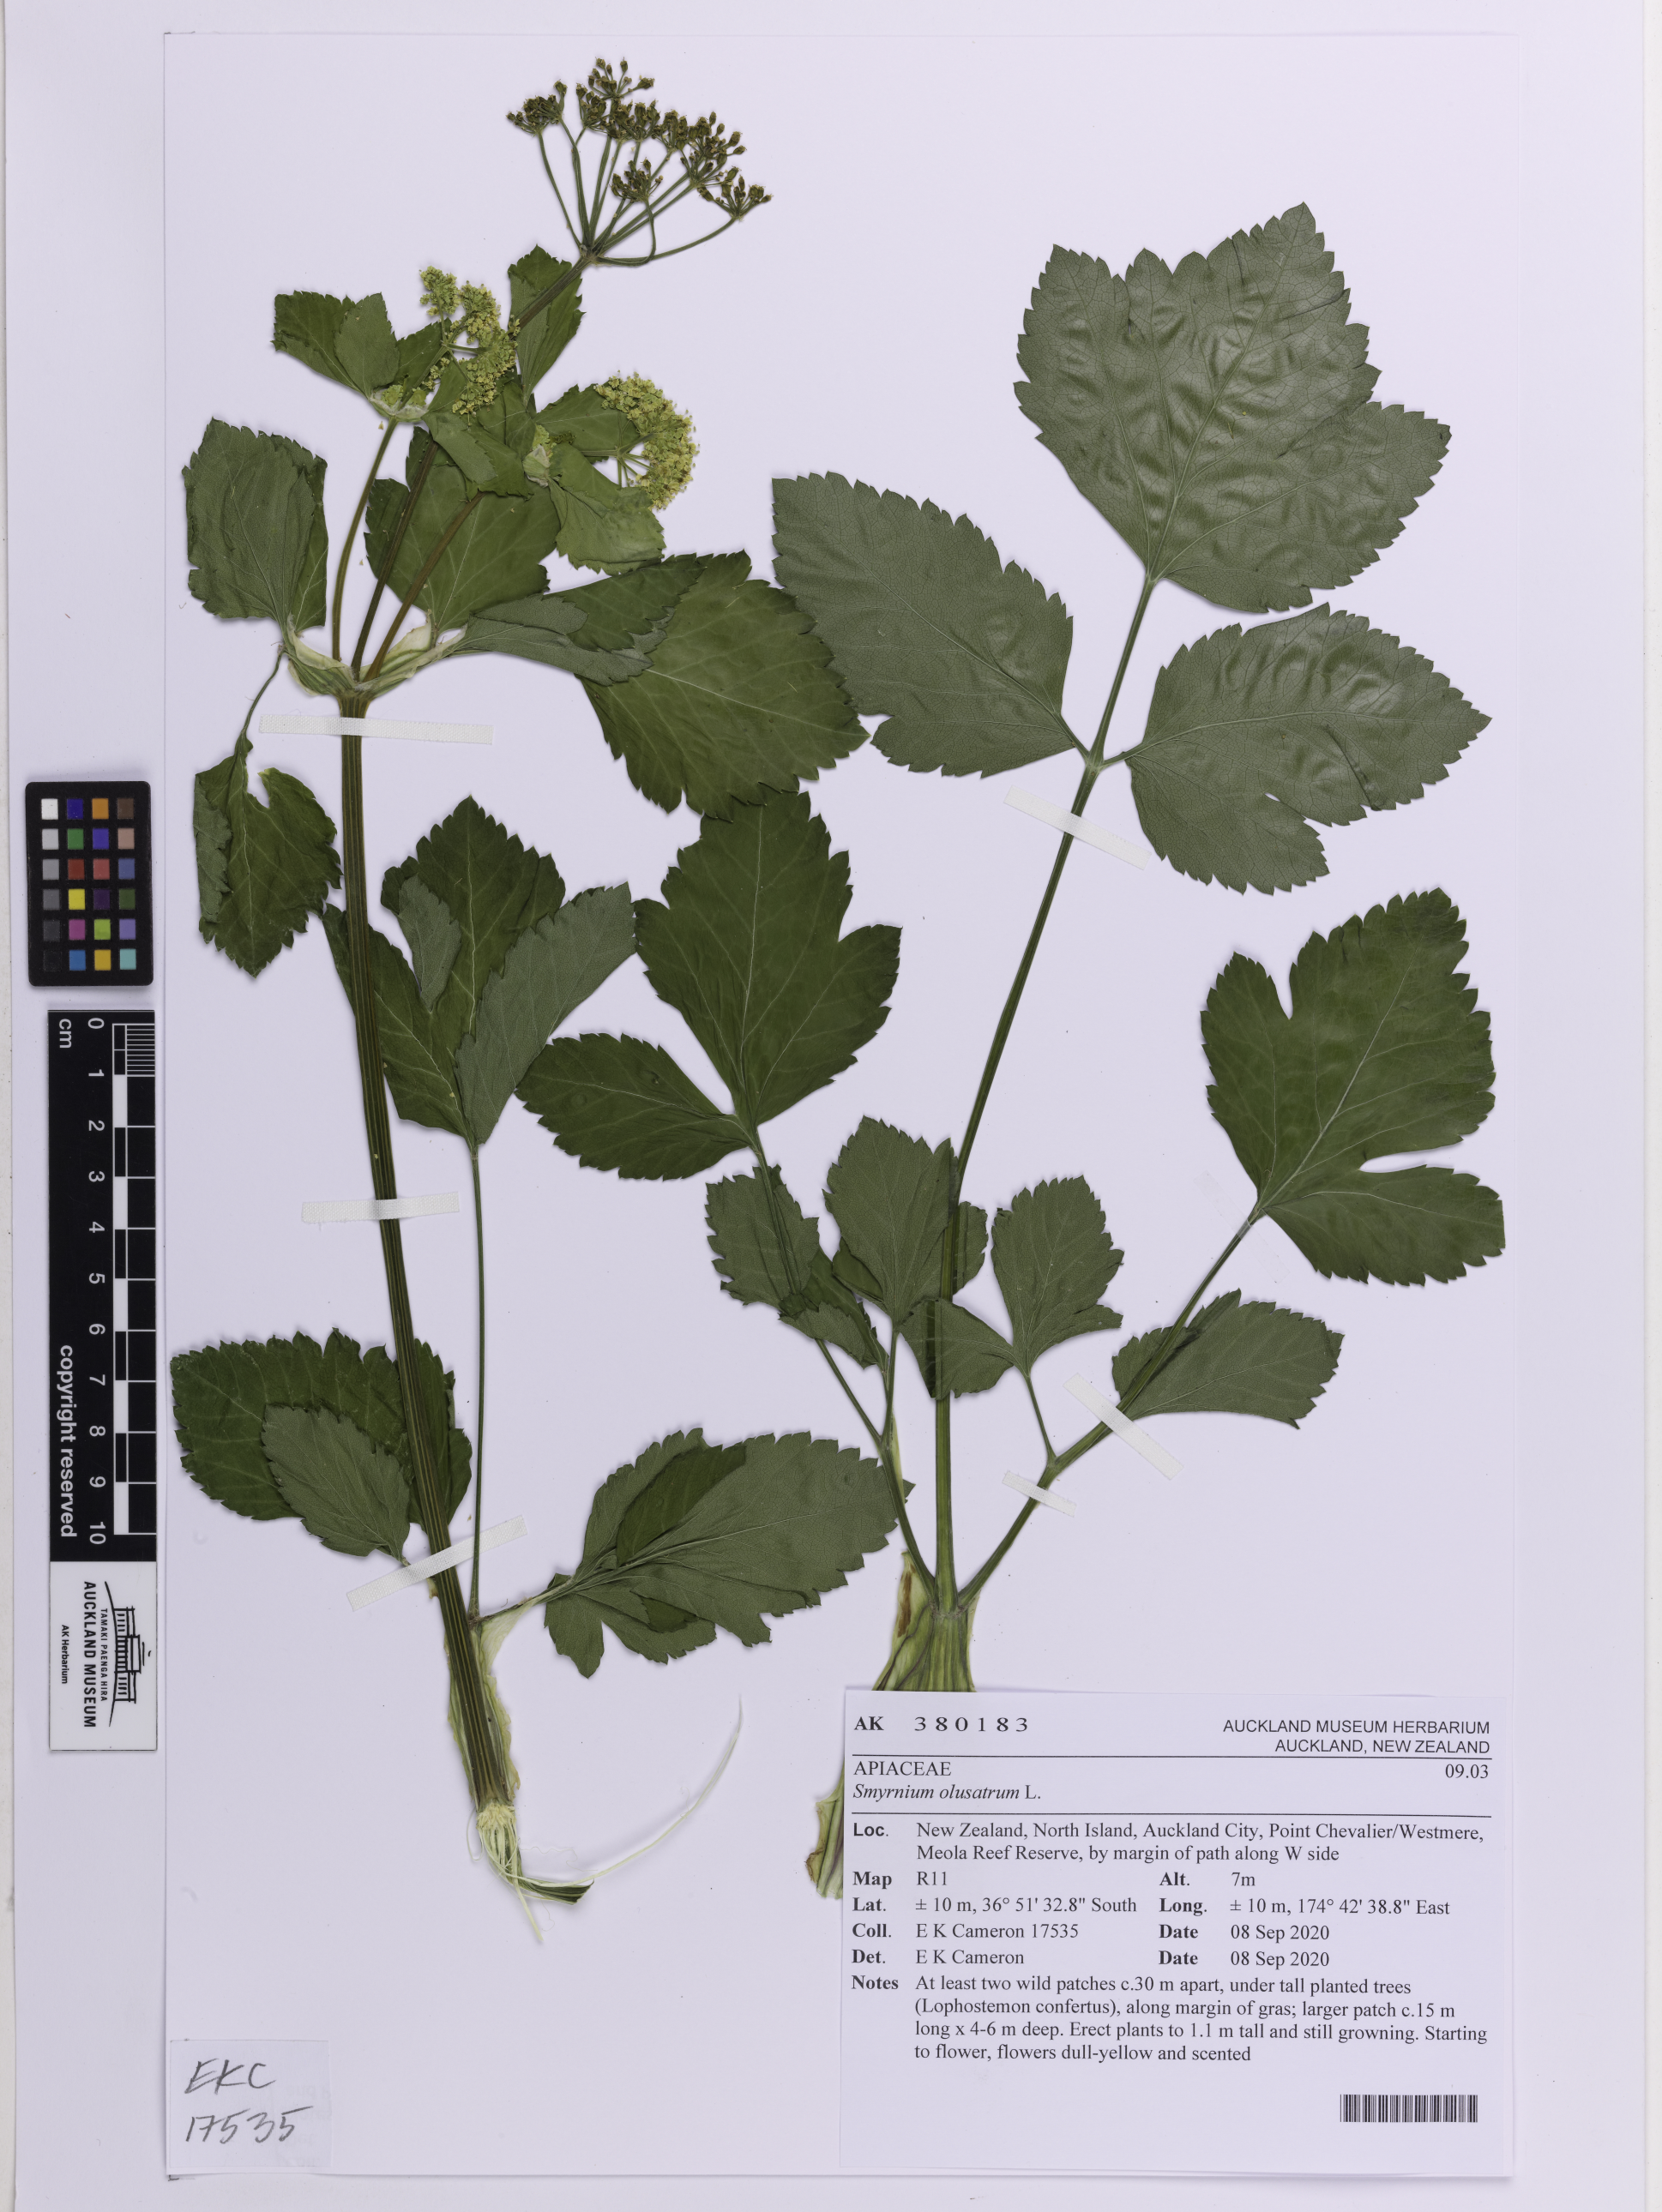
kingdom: Plantae
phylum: Tracheophyta
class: Magnoliopsida
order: Apiales
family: Apiaceae
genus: Smyrnium
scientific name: Smyrnium olusatrum
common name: Alexanders
